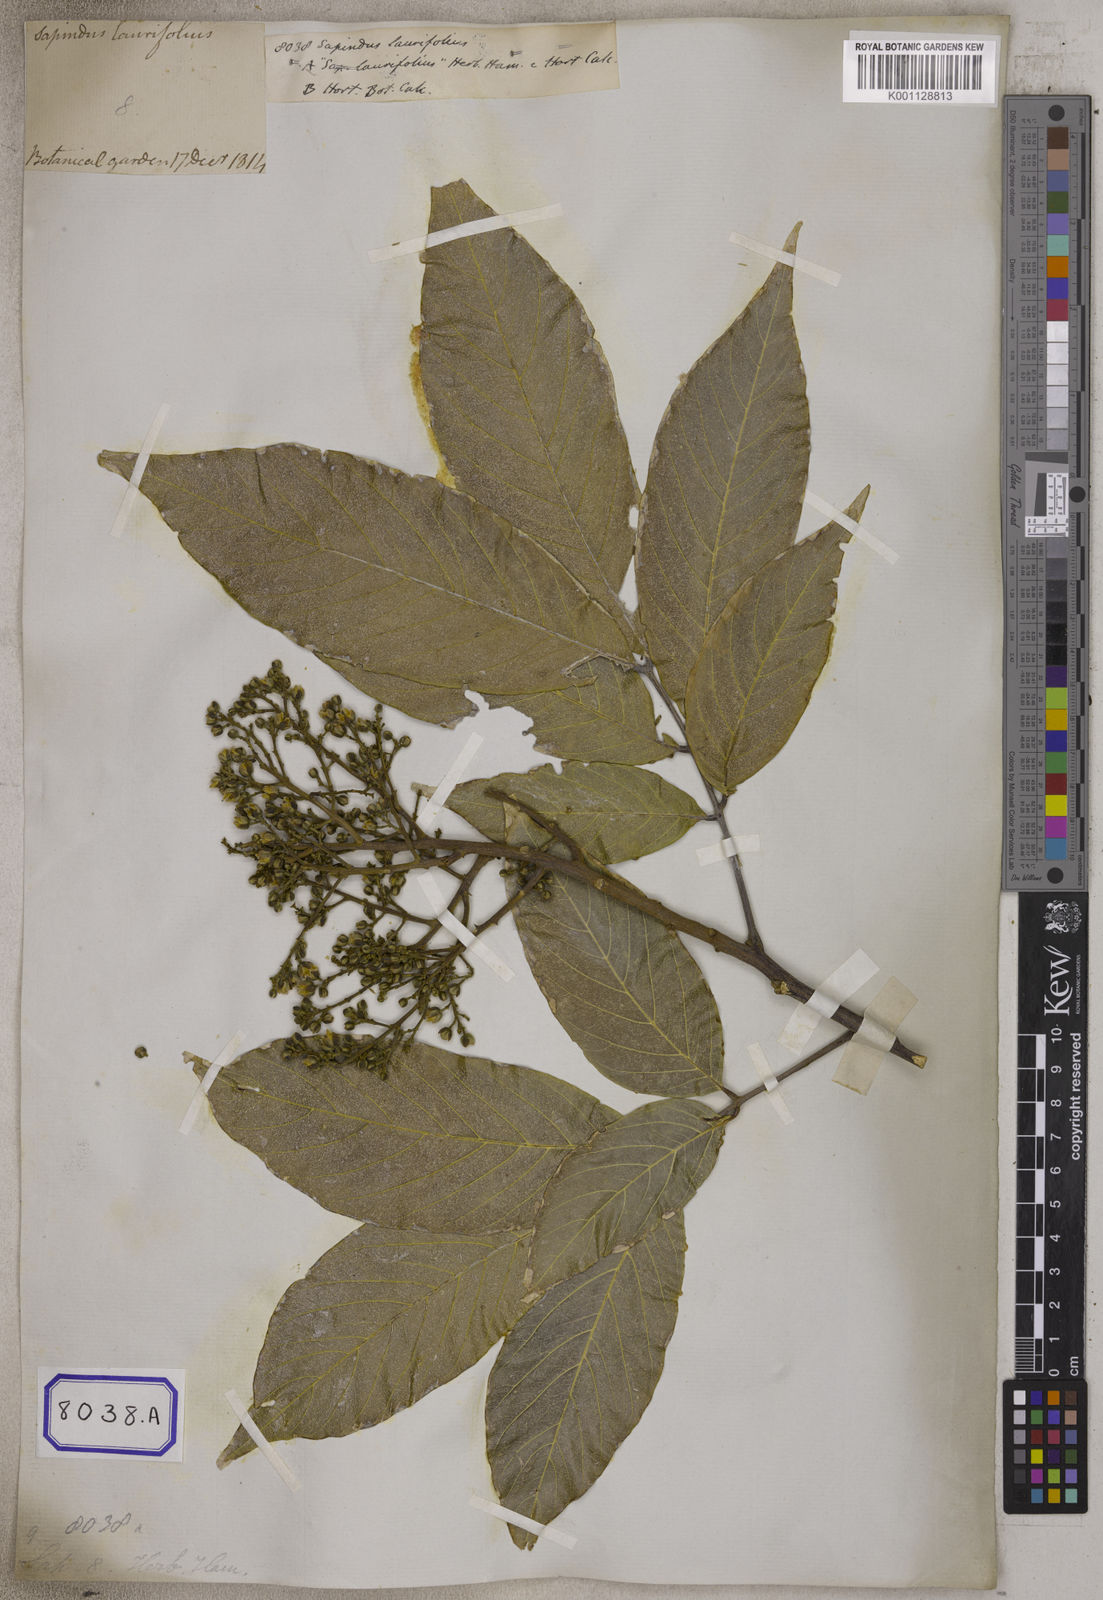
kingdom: Plantae
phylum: Tracheophyta
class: Magnoliopsida
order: Sapindales
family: Sapindaceae
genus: Sapindus
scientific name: Sapindus trifoliatus
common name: Three-leaf soapberry
